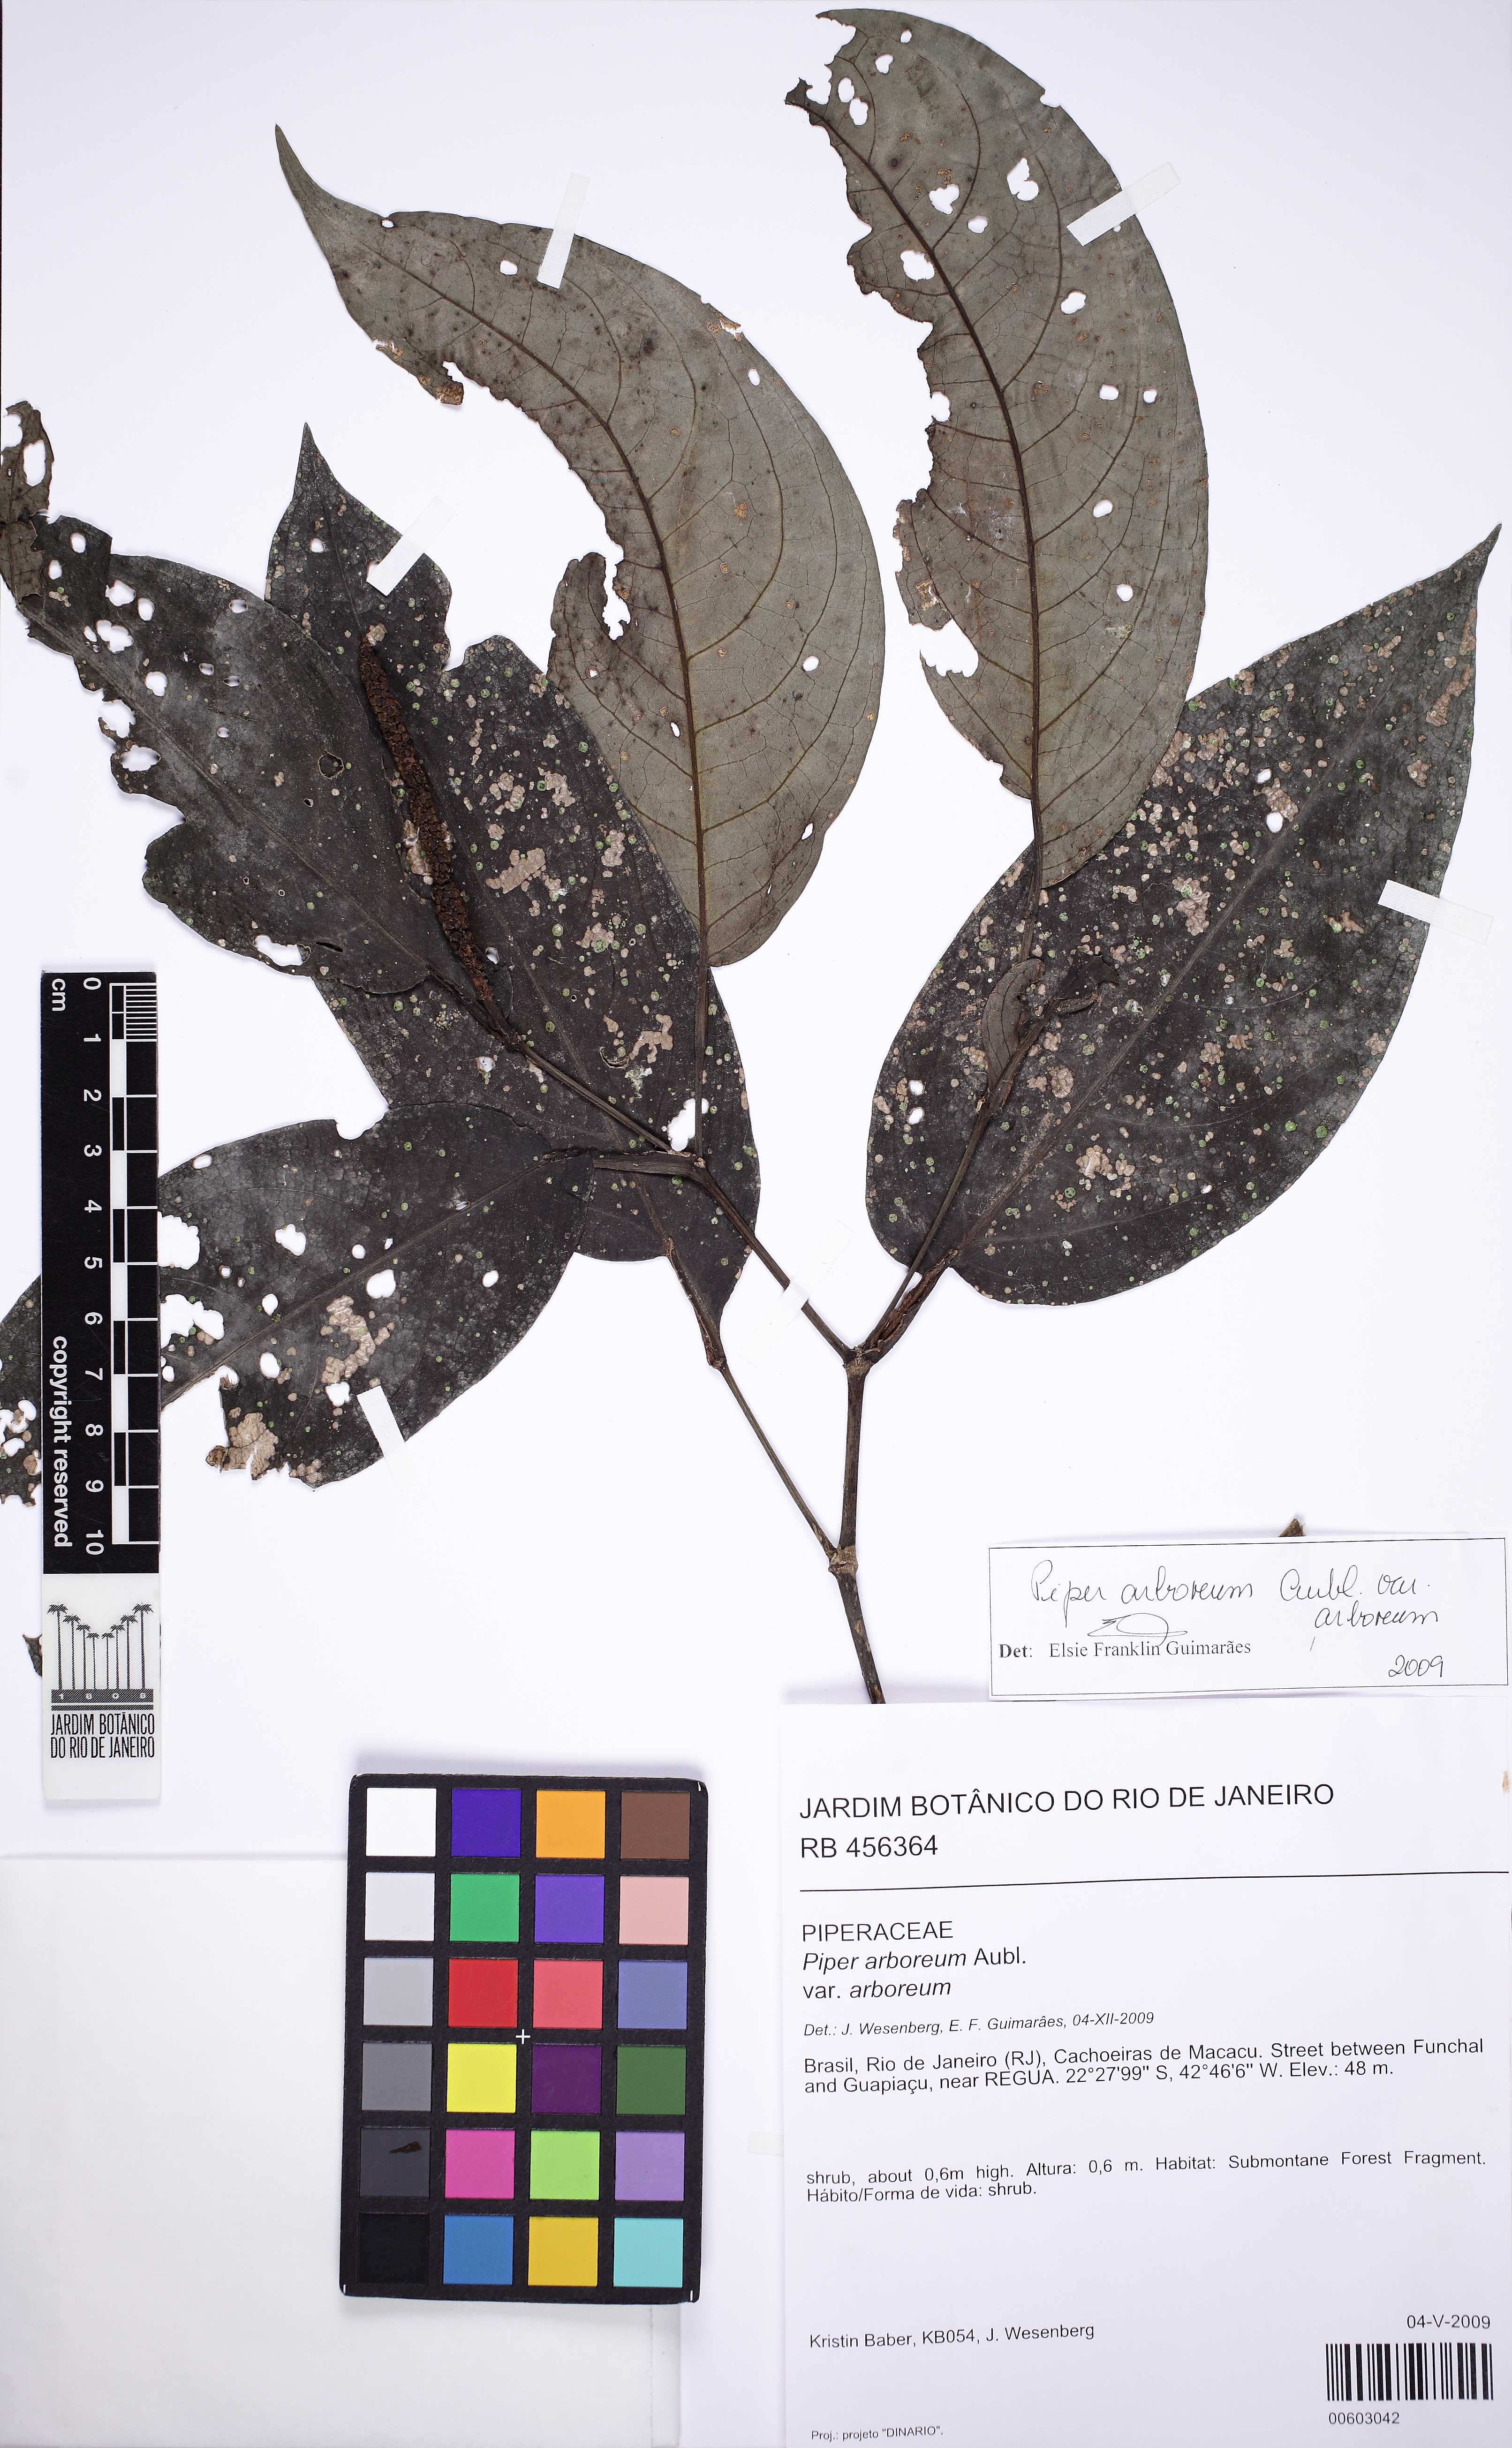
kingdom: Plantae
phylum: Tracheophyta
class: Magnoliopsida
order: Piperales
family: Piperaceae
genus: Piper
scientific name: Piper arboreum
